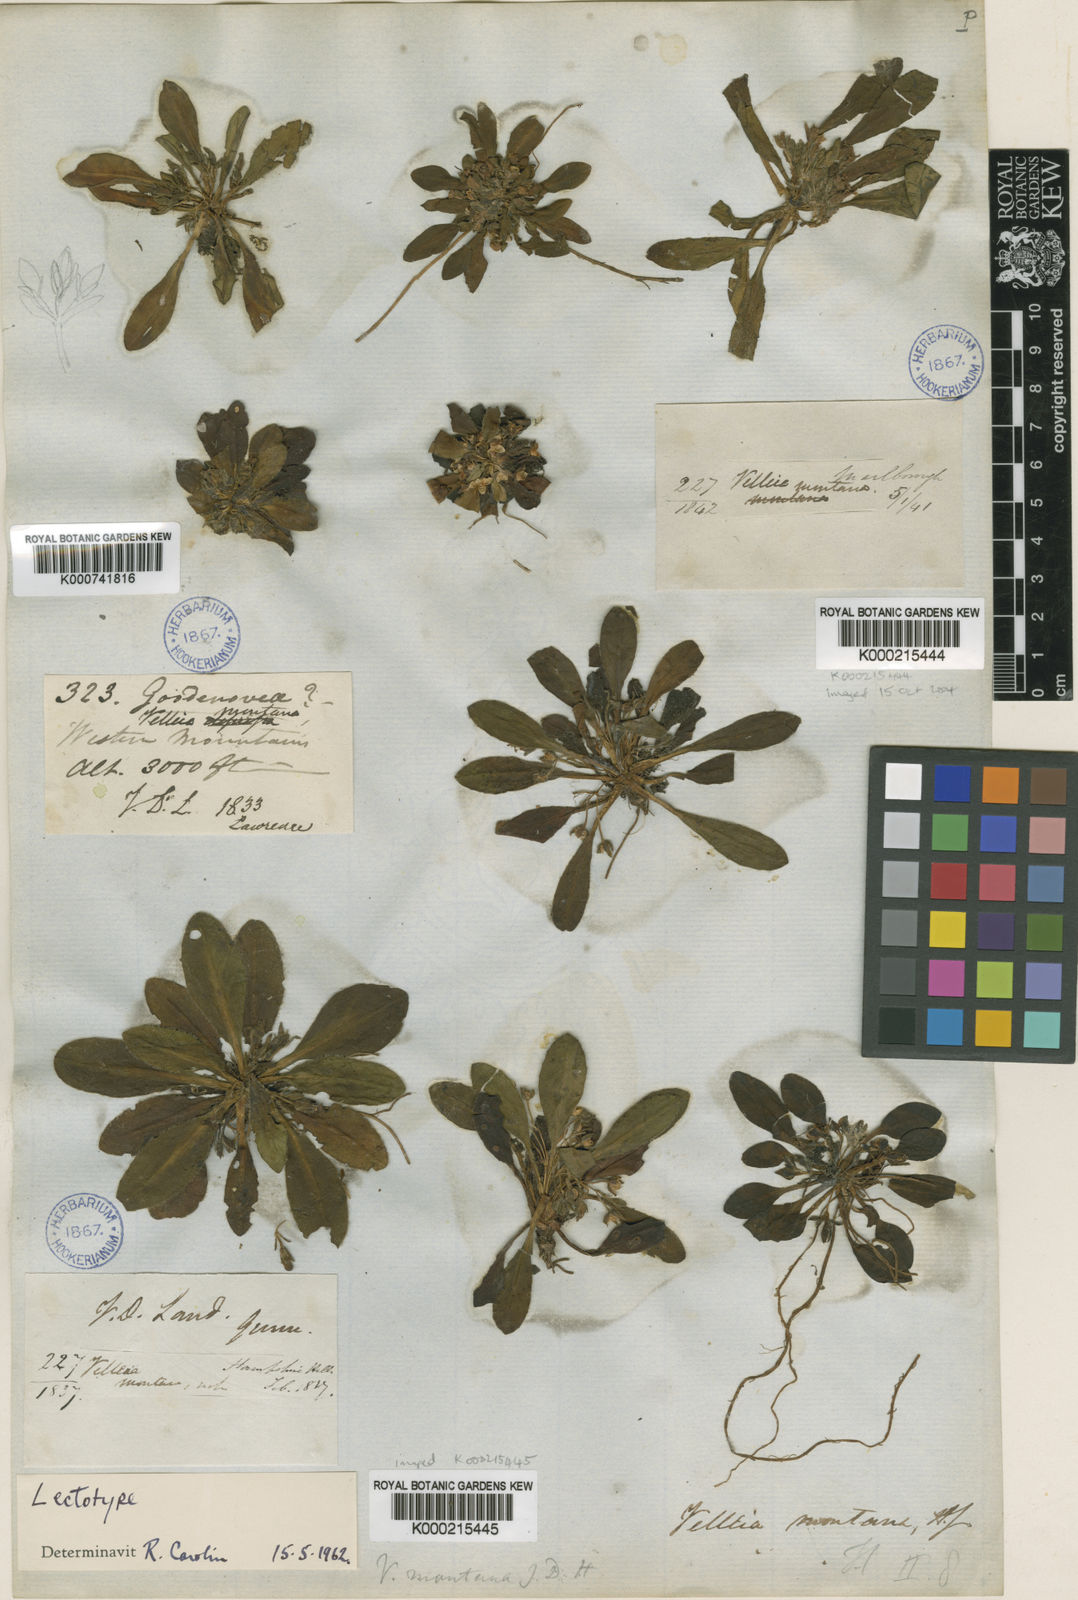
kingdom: Plantae
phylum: Tracheophyta
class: Magnoliopsida
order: Asterales
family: Goodeniaceae
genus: Goodenia
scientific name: Goodenia montana
